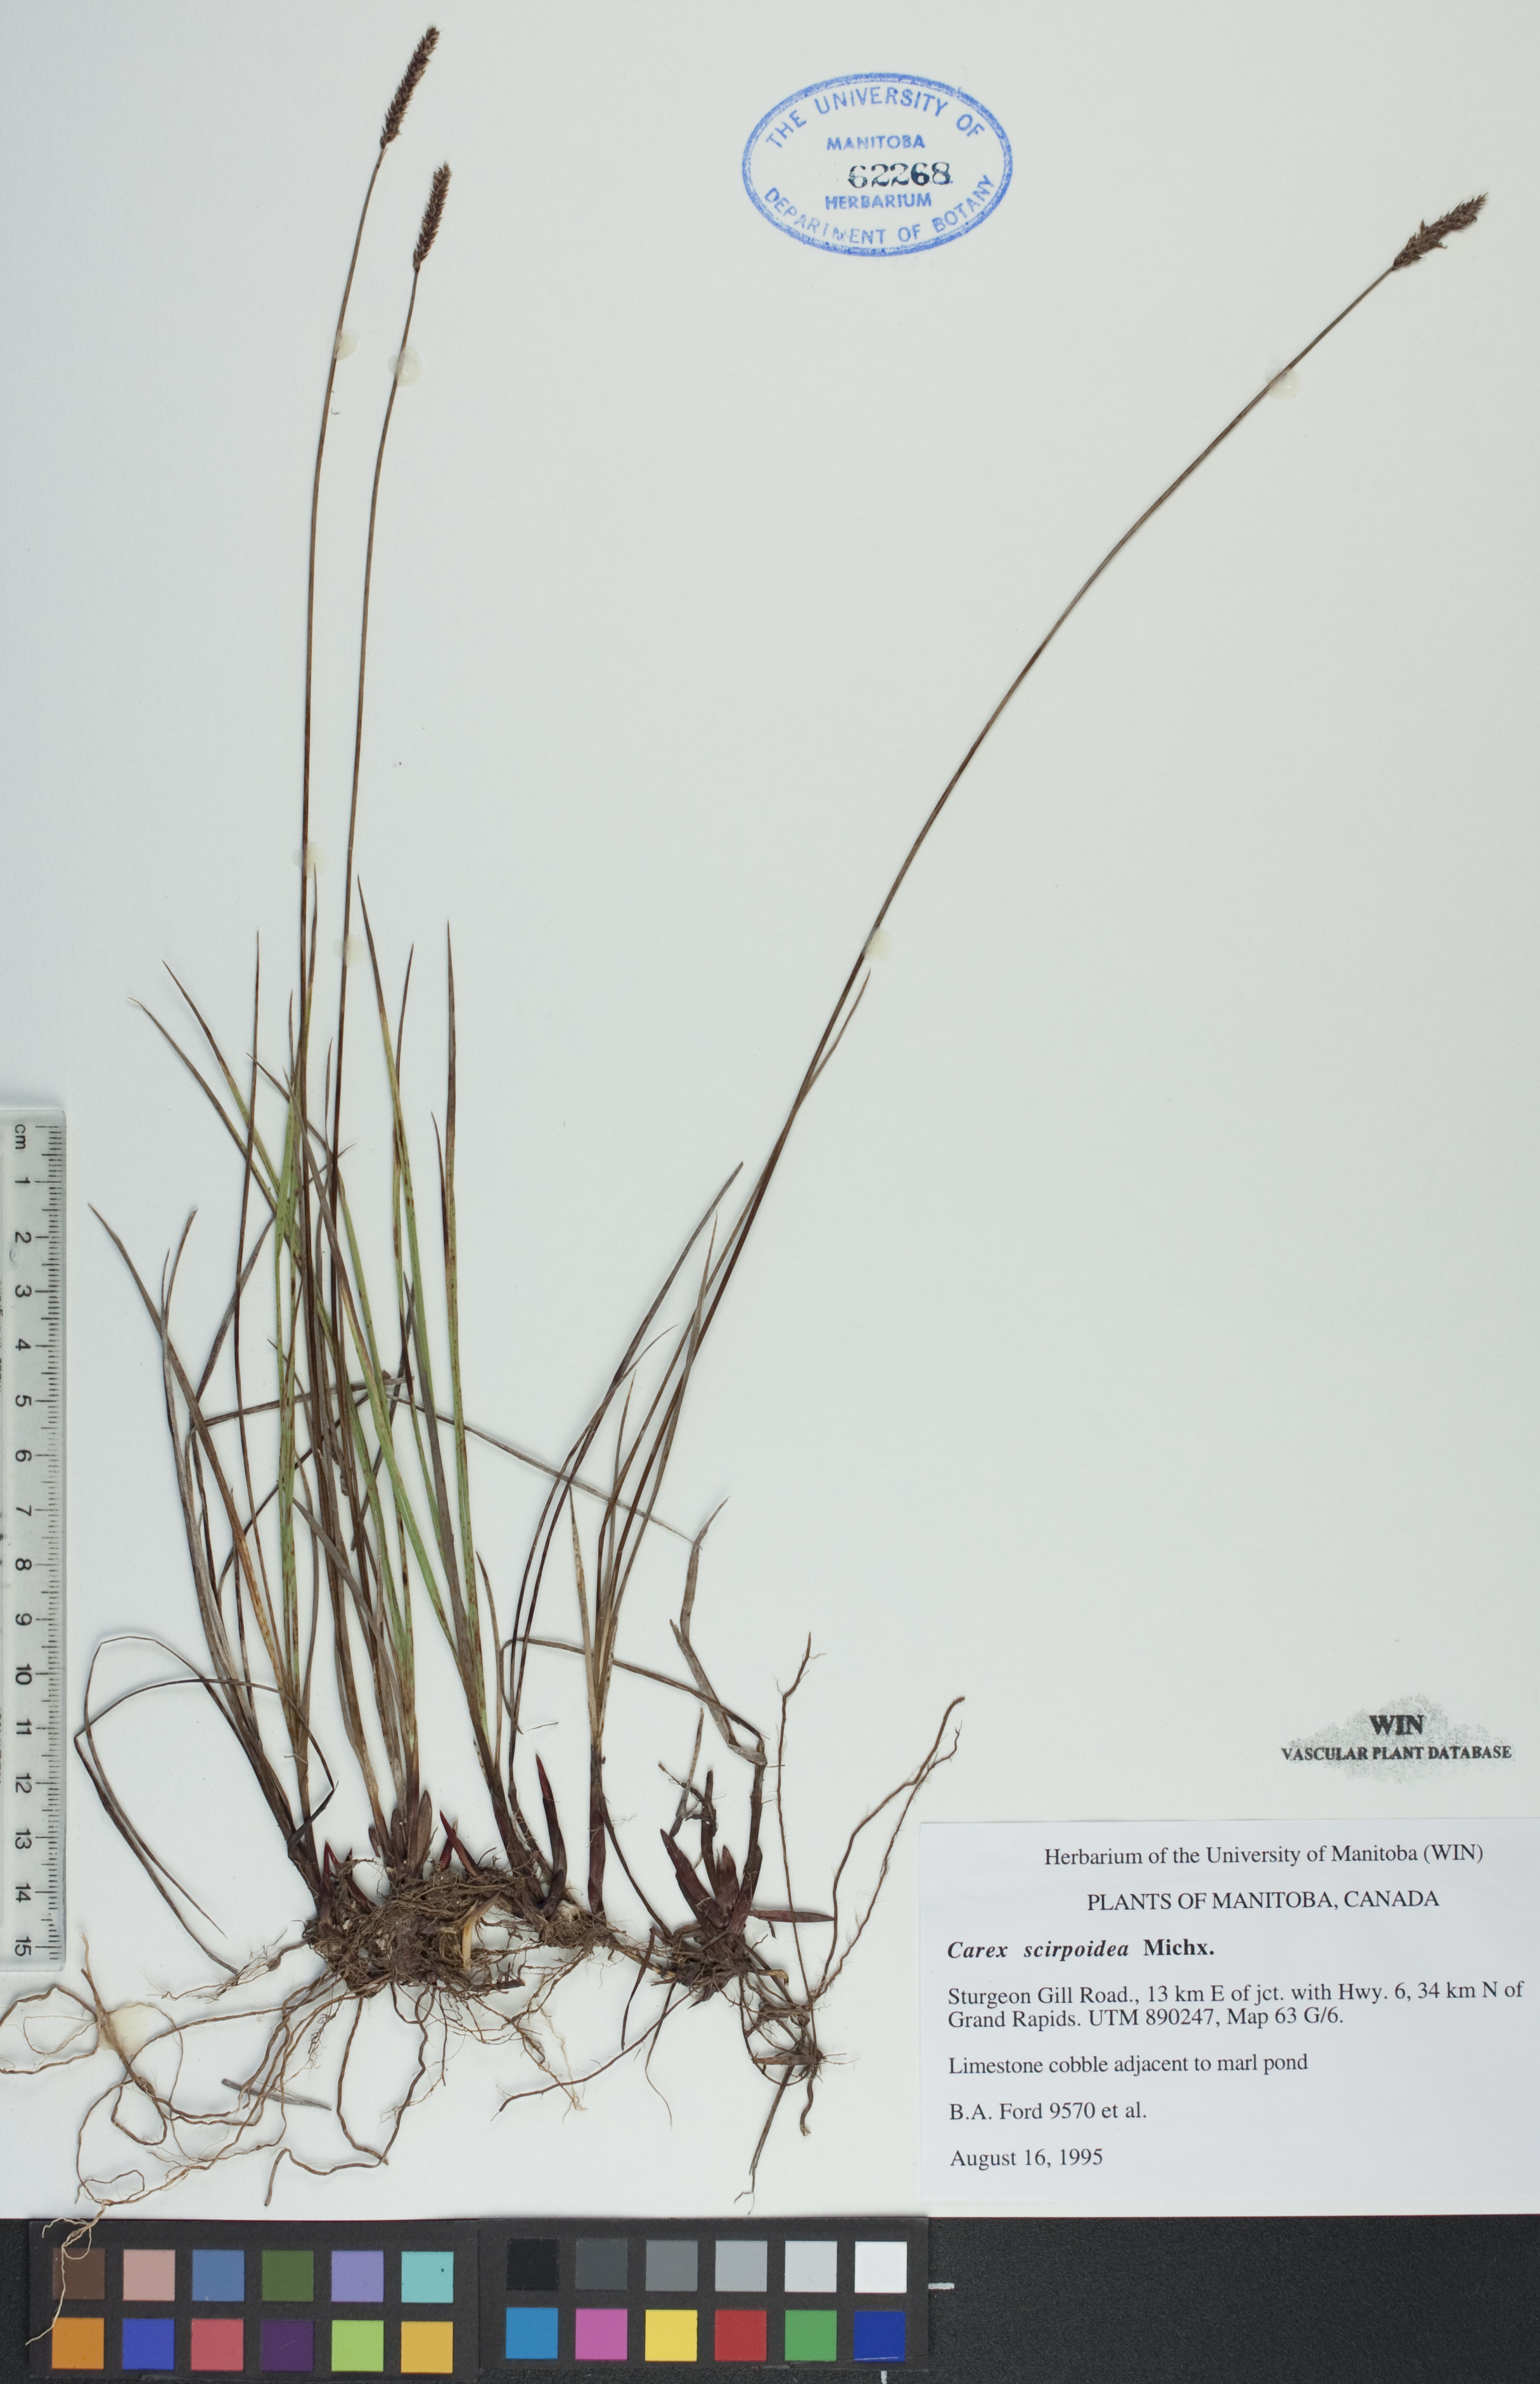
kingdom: Plantae
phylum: Tracheophyta
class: Liliopsida
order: Poales
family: Cyperaceae
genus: Carex
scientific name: Carex scirpoidea
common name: Canada single-spike sedge
